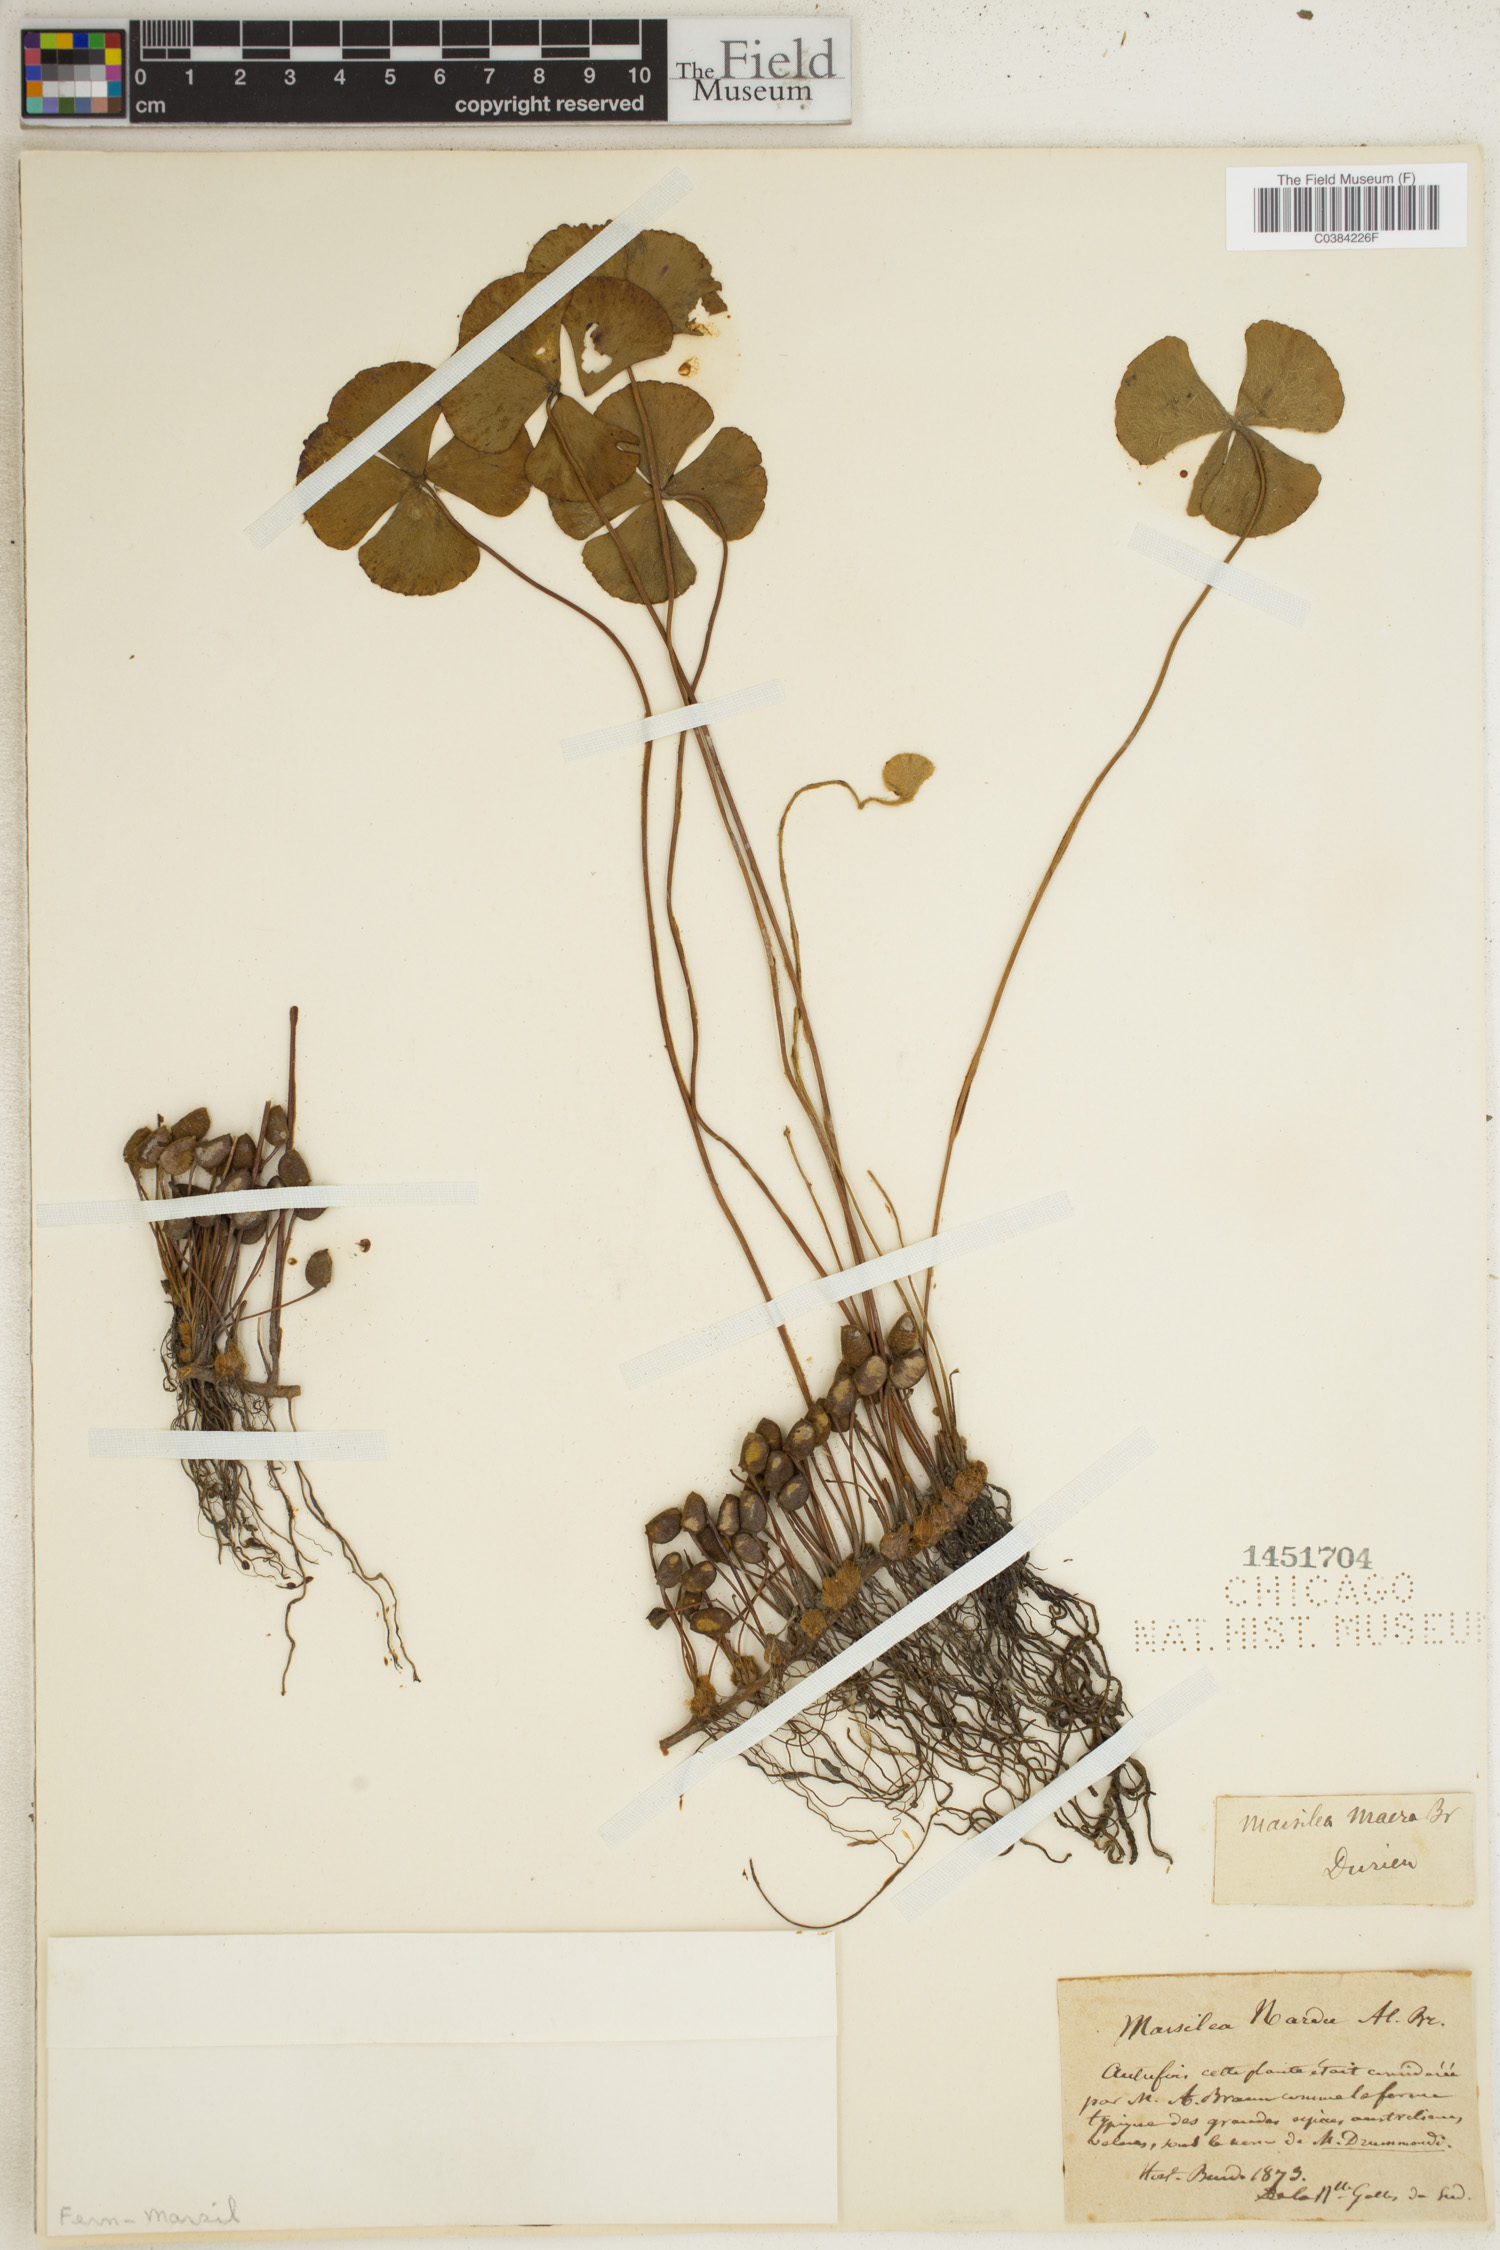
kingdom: Plantae
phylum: Tracheophyta
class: Polypodiopsida
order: Salviniales
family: Marsileaceae
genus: Marsilea
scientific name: Marsilea
